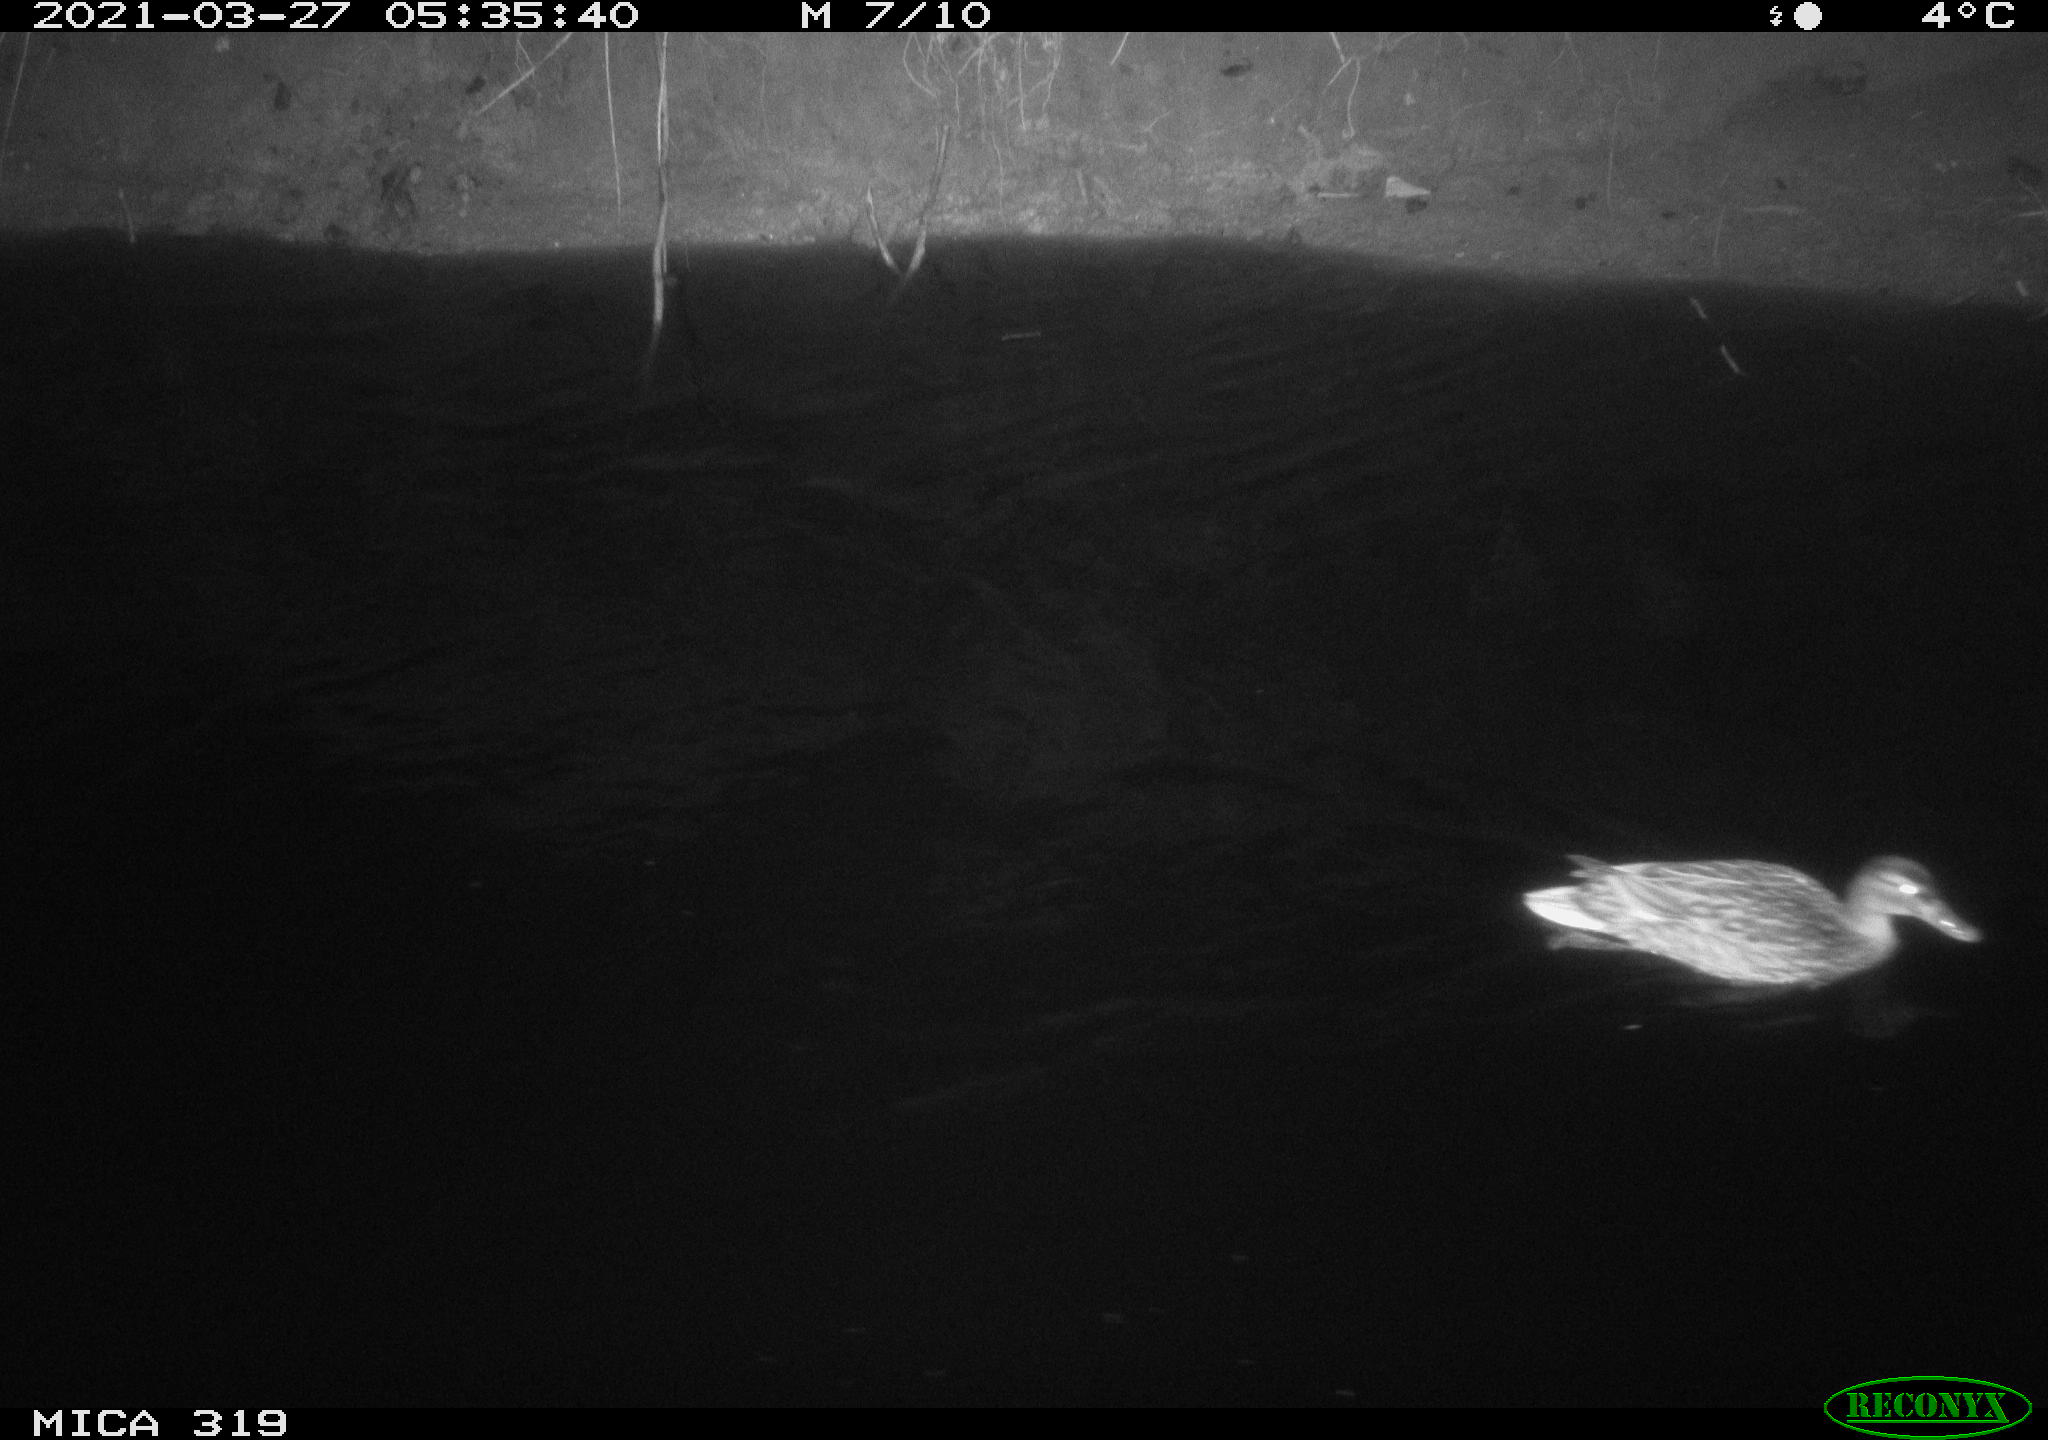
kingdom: Animalia
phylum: Chordata
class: Aves
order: Anseriformes
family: Anatidae
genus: Anas
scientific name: Anas platyrhynchos
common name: Mallard
